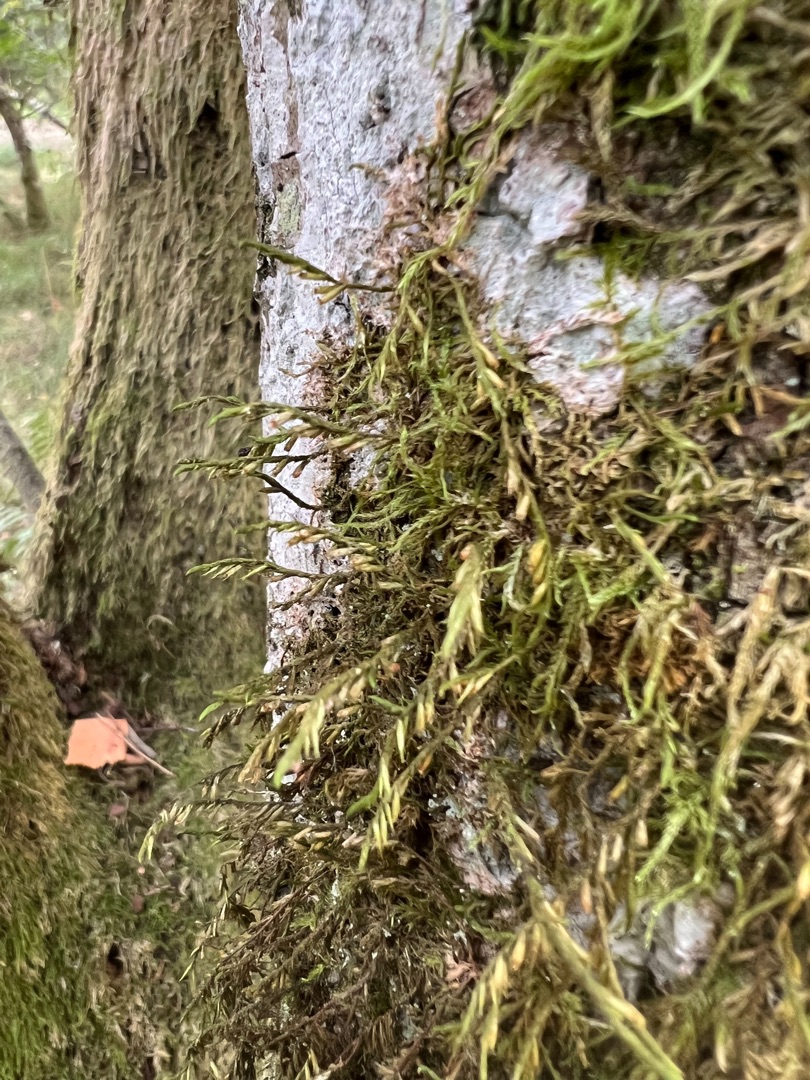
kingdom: Plantae
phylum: Bryophyta
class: Bryopsida
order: Hypnales
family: Cryphaeaceae
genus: Cryphaea
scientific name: Cryphaea heteromalla
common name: Bark-dækmos
